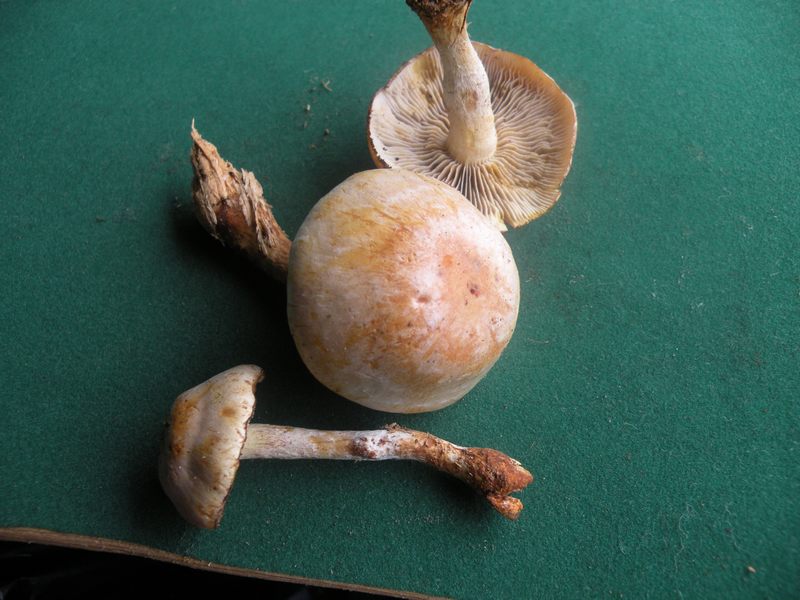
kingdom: Fungi
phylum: Basidiomycota
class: Agaricomycetes
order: Agaricales
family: Strophariaceae
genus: Hypholoma
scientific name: Hypholoma radicosum
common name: pælerods-svovlhat
